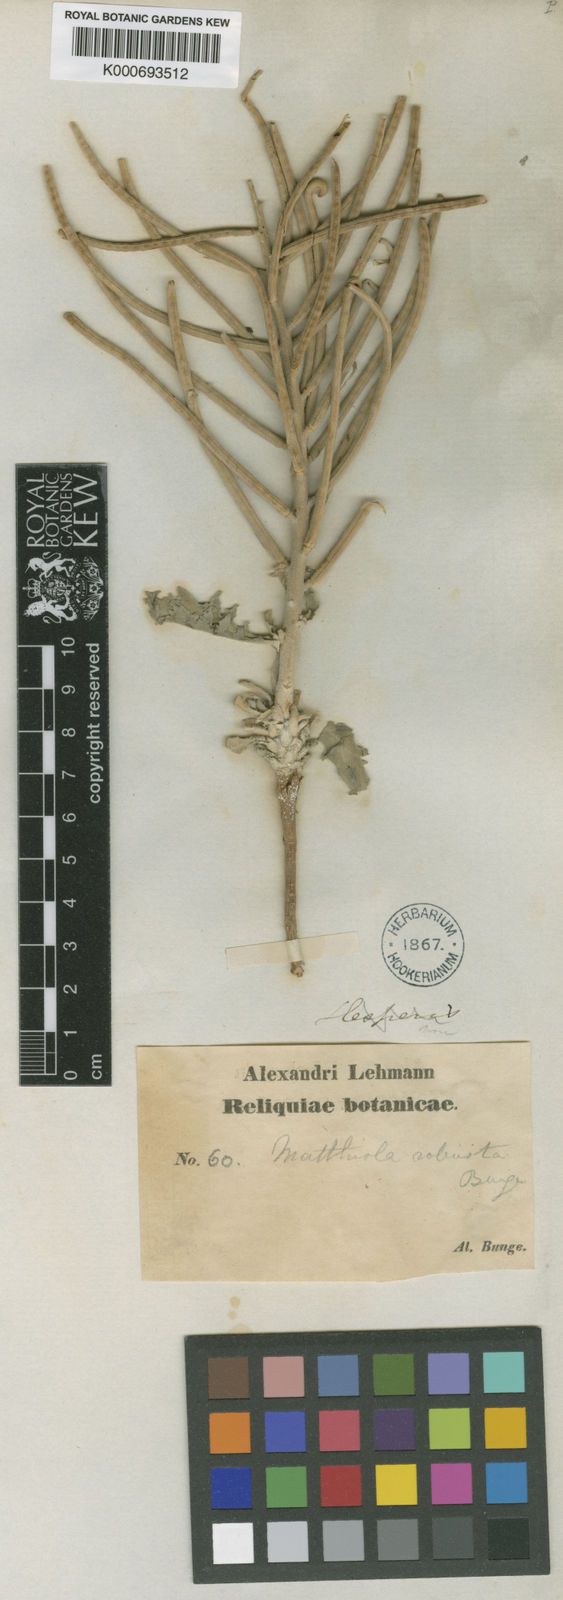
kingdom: Plantae
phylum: Tracheophyta
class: Magnoliopsida
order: Brassicales
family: Brassicaceae
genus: Matthiola
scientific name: Matthiola robusta
